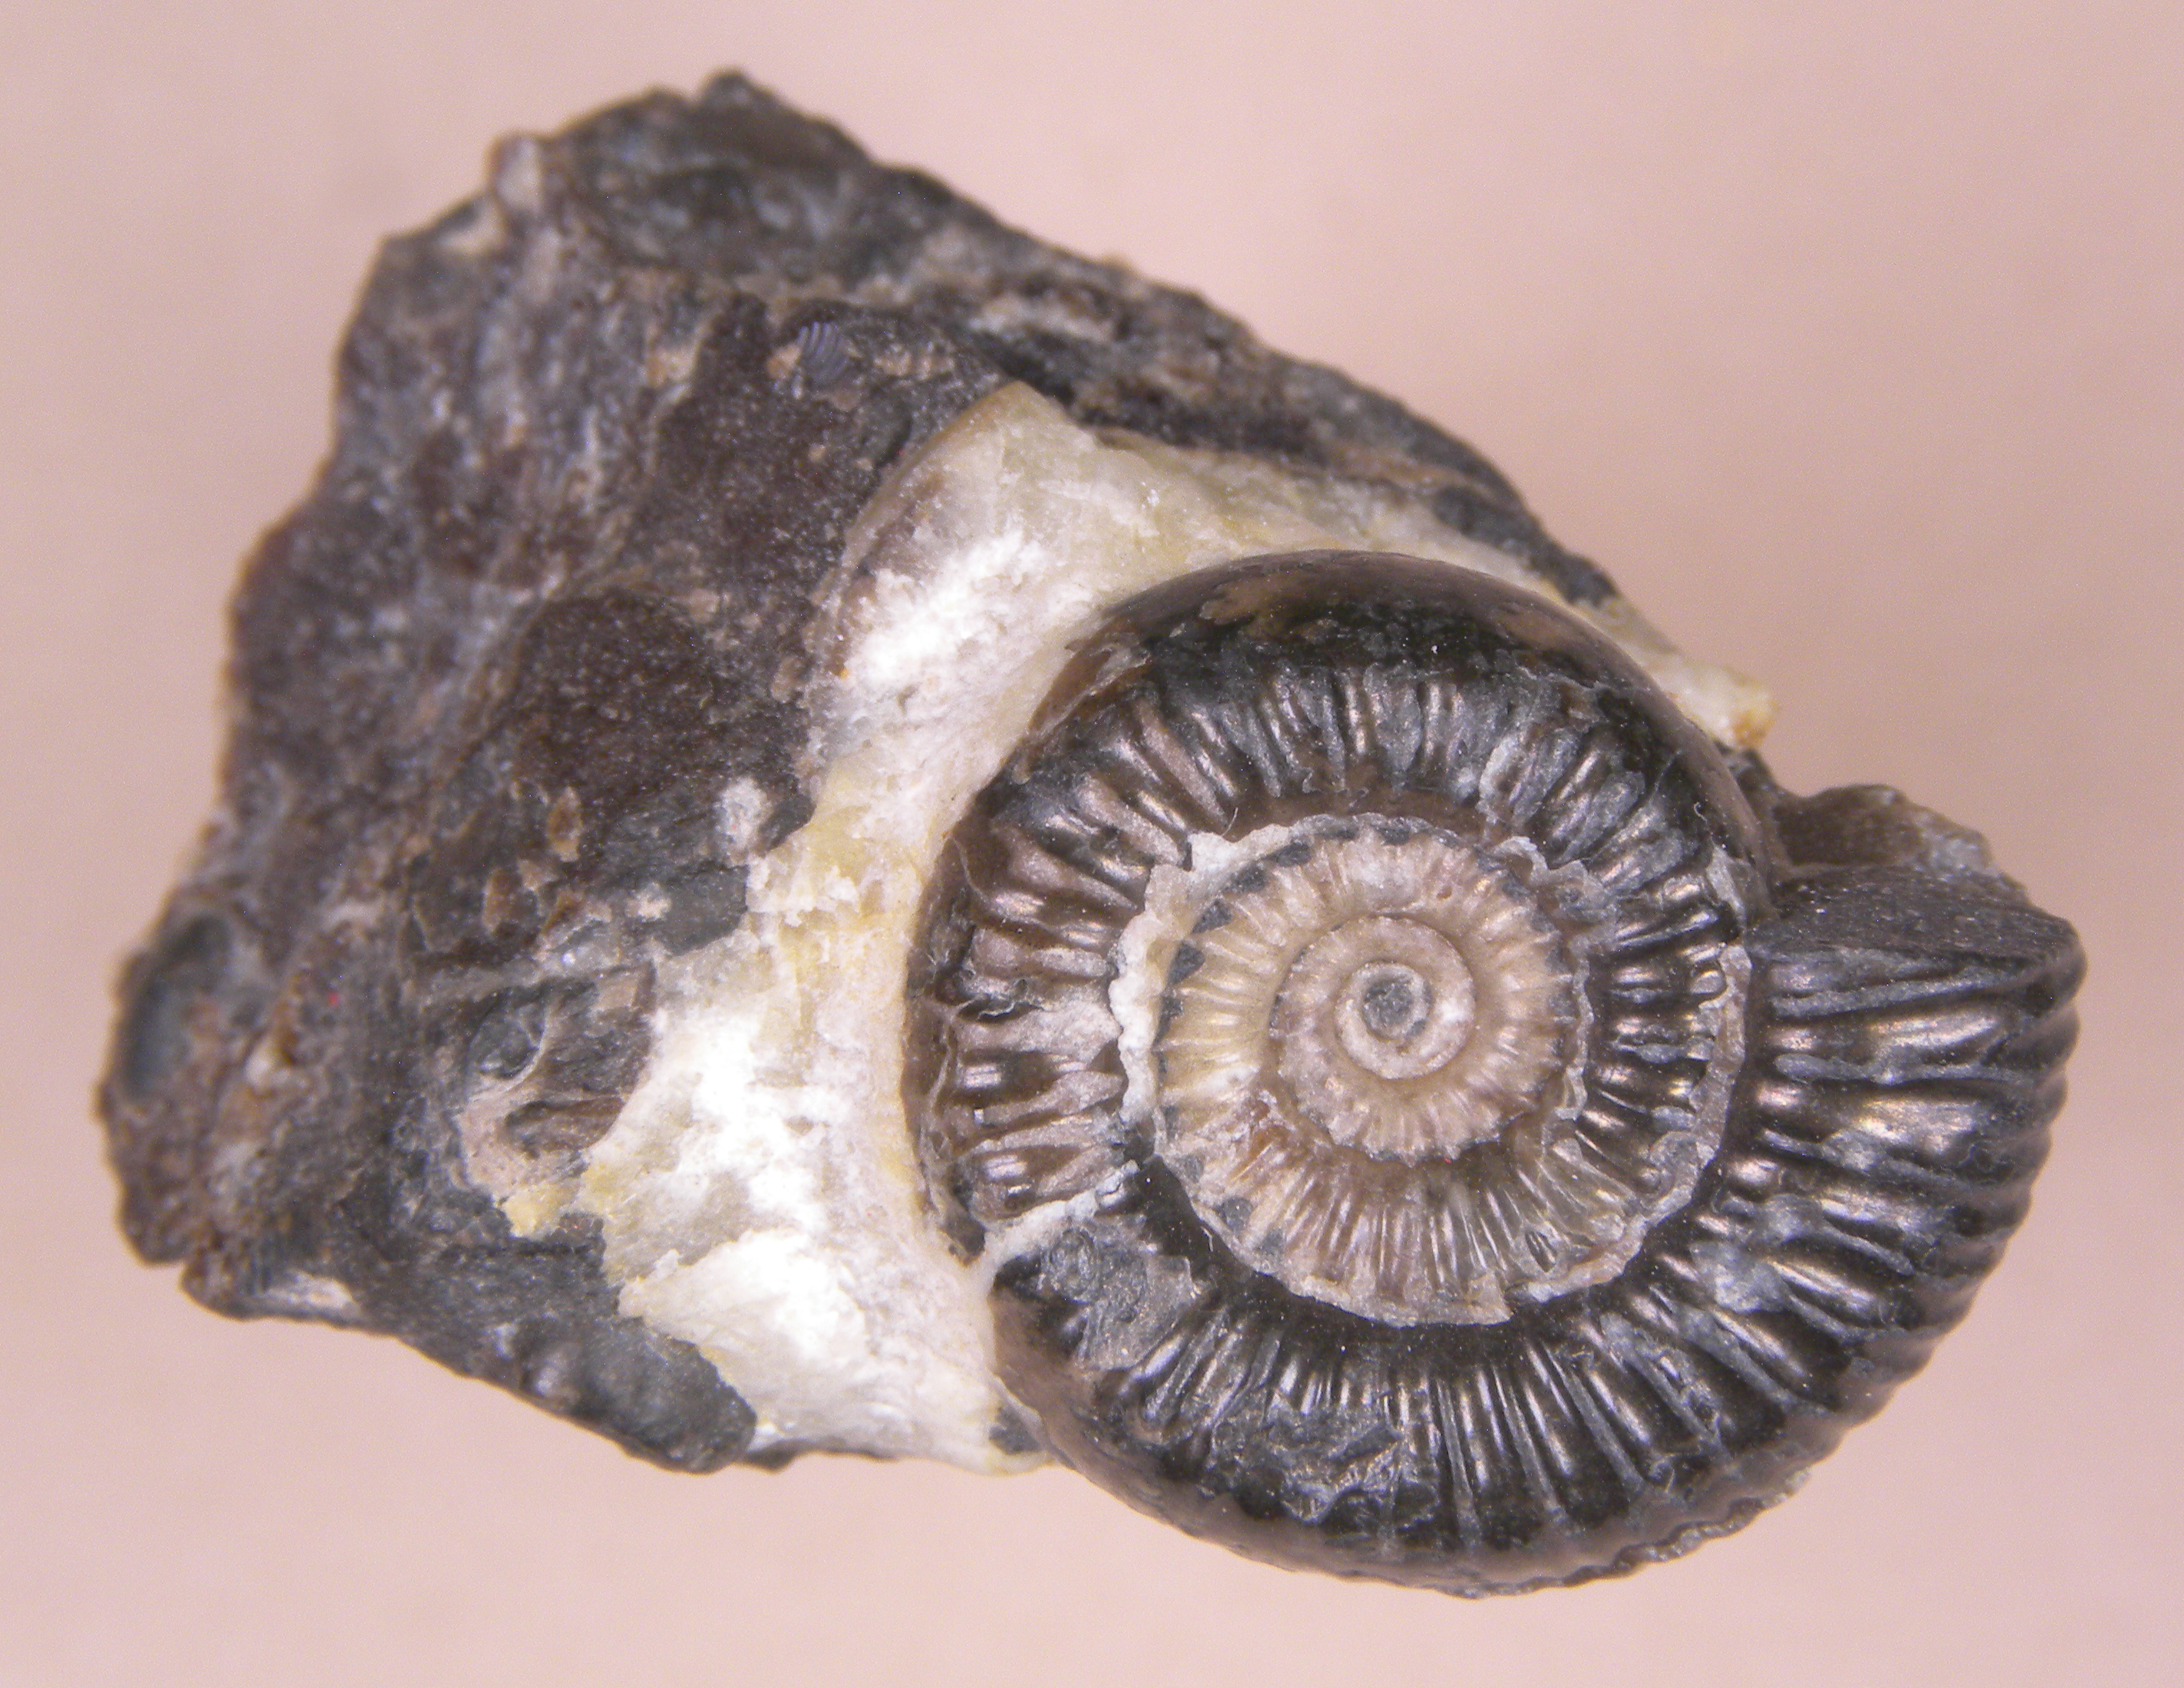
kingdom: Animalia
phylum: Mollusca
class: Cephalopoda
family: Dactylioceratidae
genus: Dactylioceras
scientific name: Dactylioceras
